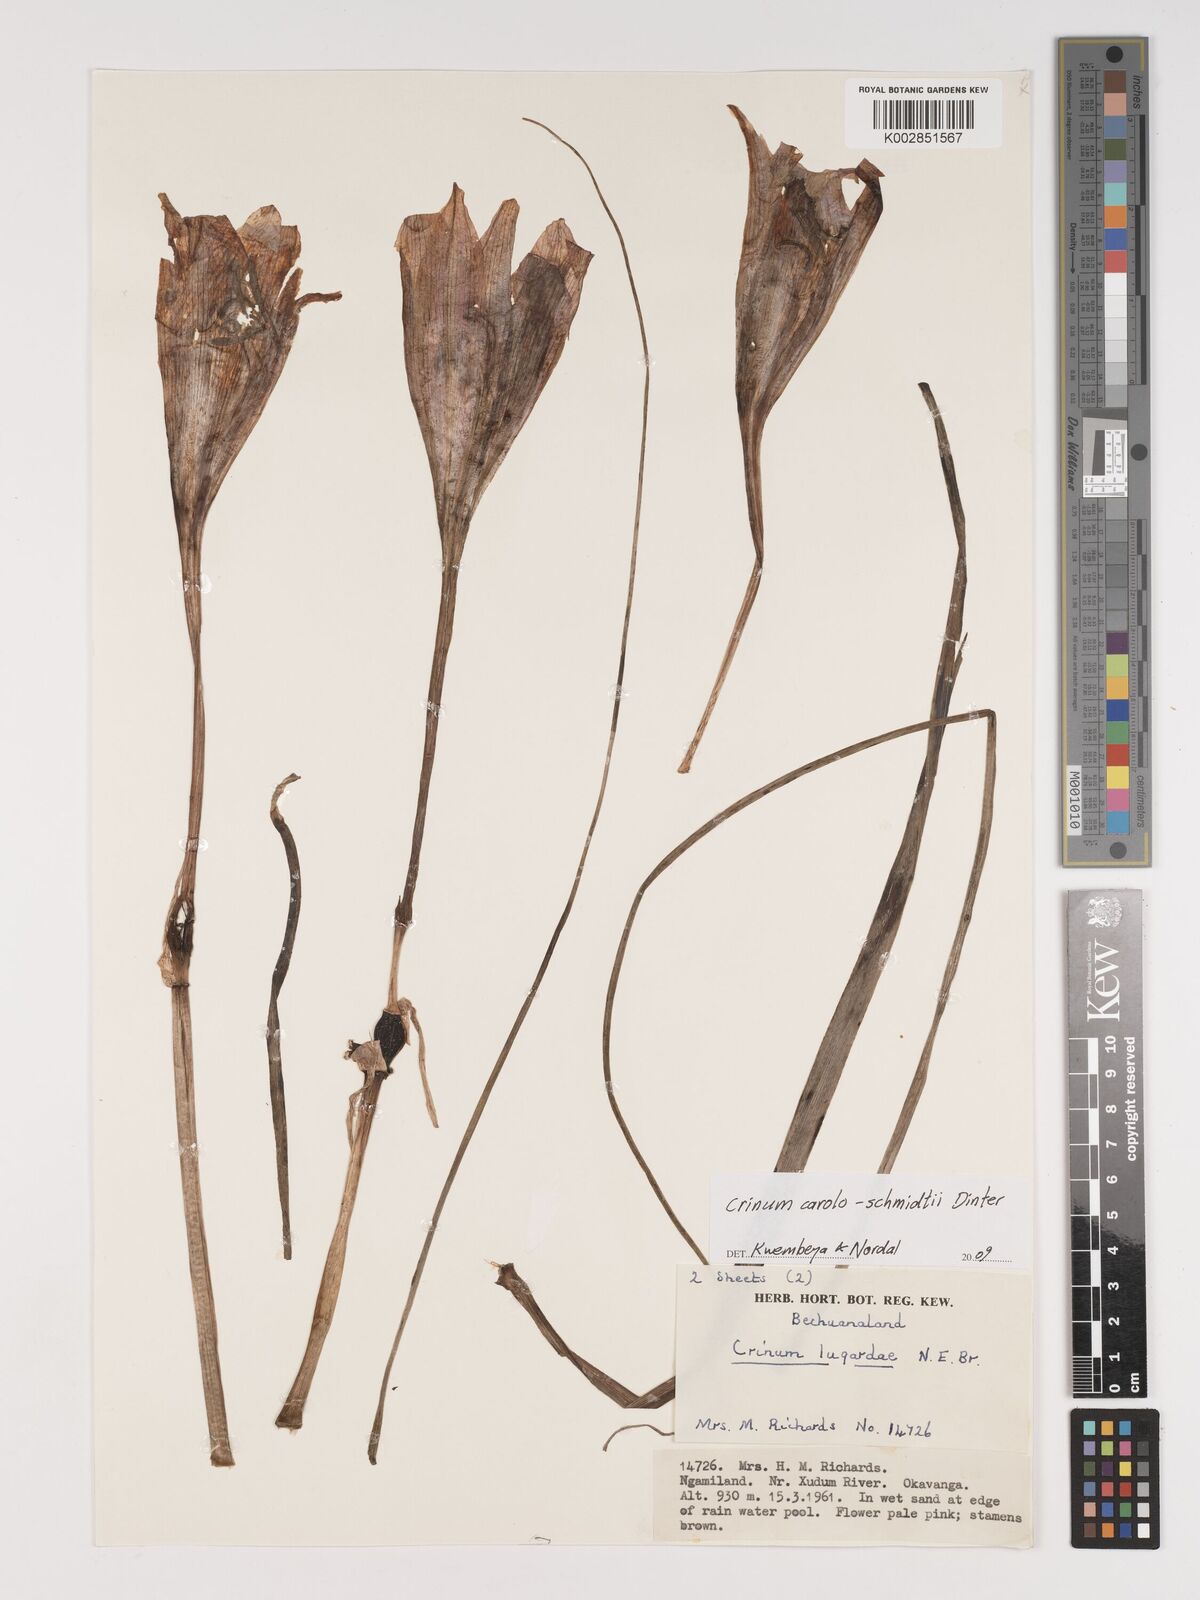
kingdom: Plantae
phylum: Tracheophyta
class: Liliopsida
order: Asparagales
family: Amaryllidaceae
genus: Crinum
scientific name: Crinum carolo-schmidtii
